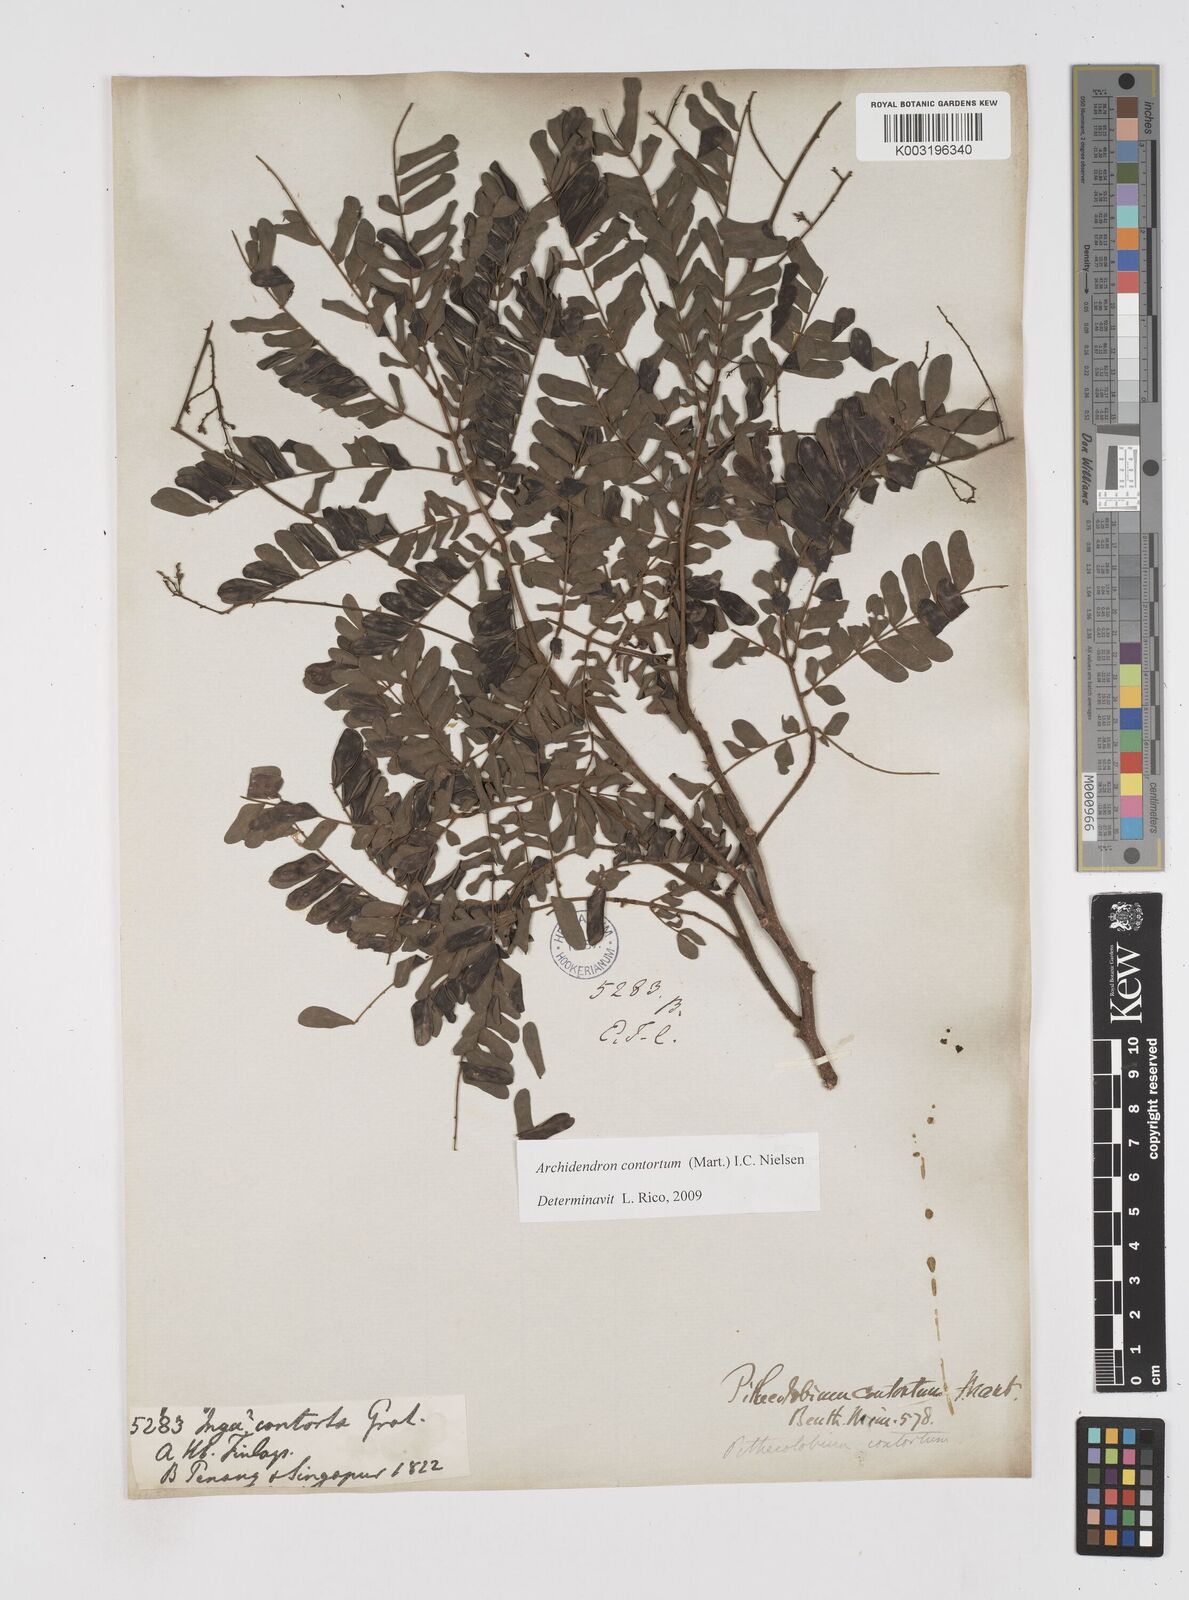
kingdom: Plantae
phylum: Tracheophyta
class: Magnoliopsida
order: Fabales
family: Fabaceae
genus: Archidendron
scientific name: Archidendron contortum
